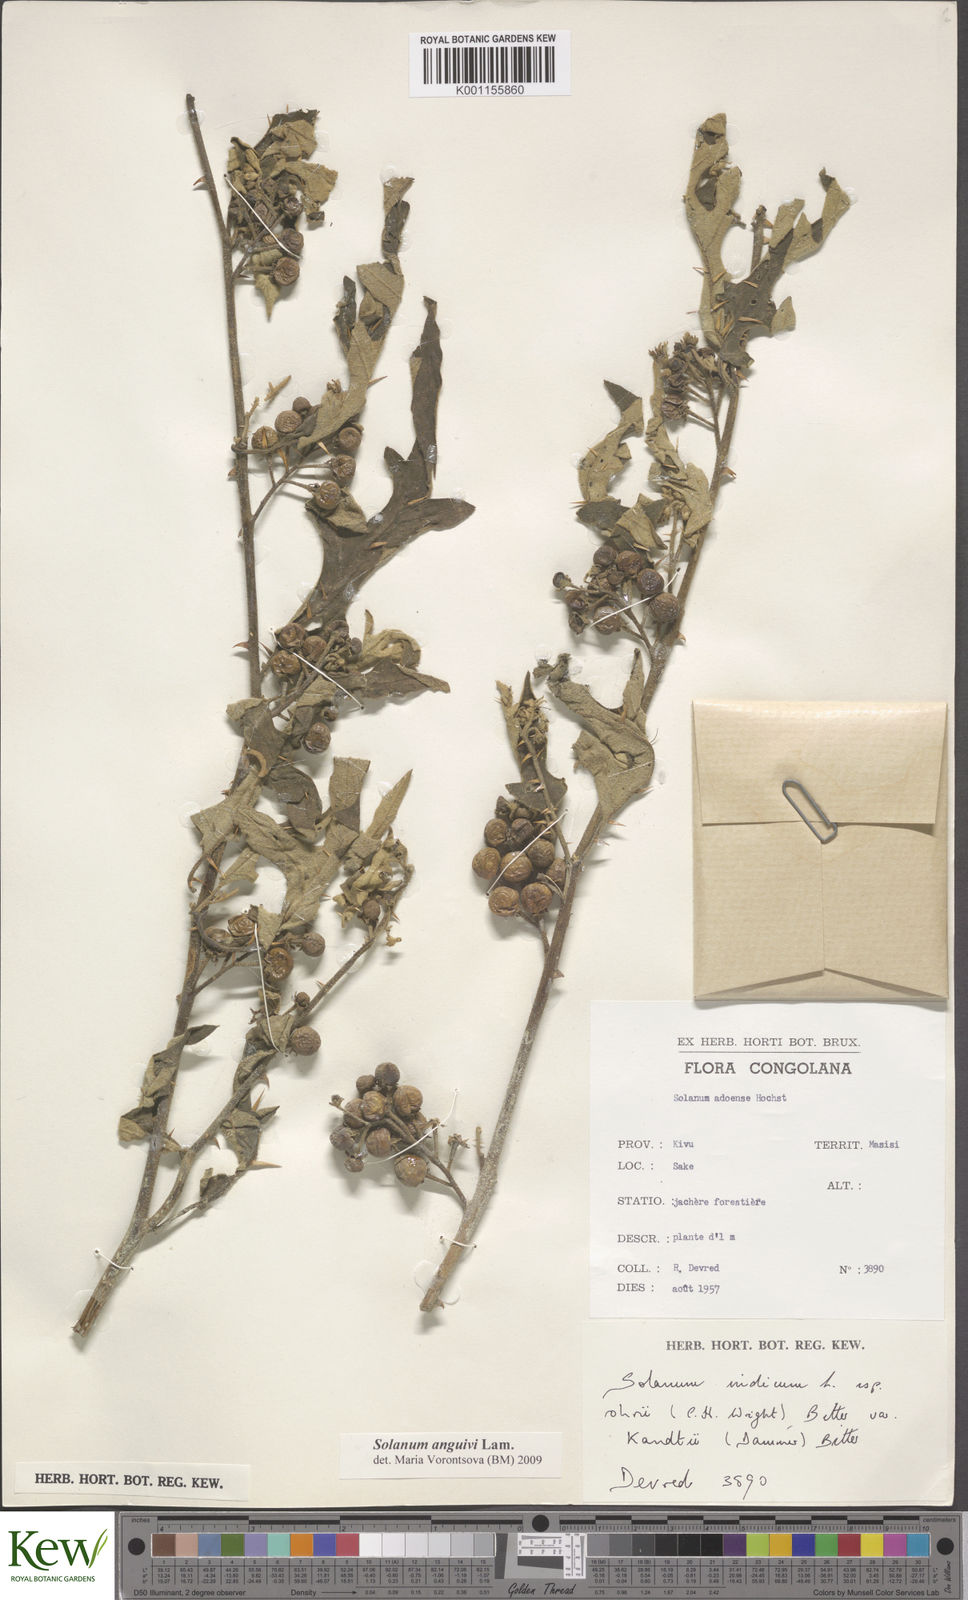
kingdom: Plantae
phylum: Tracheophyta
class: Magnoliopsida
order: Solanales
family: Solanaceae
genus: Solanum
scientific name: Solanum anguivi
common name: Forest bitterberry
